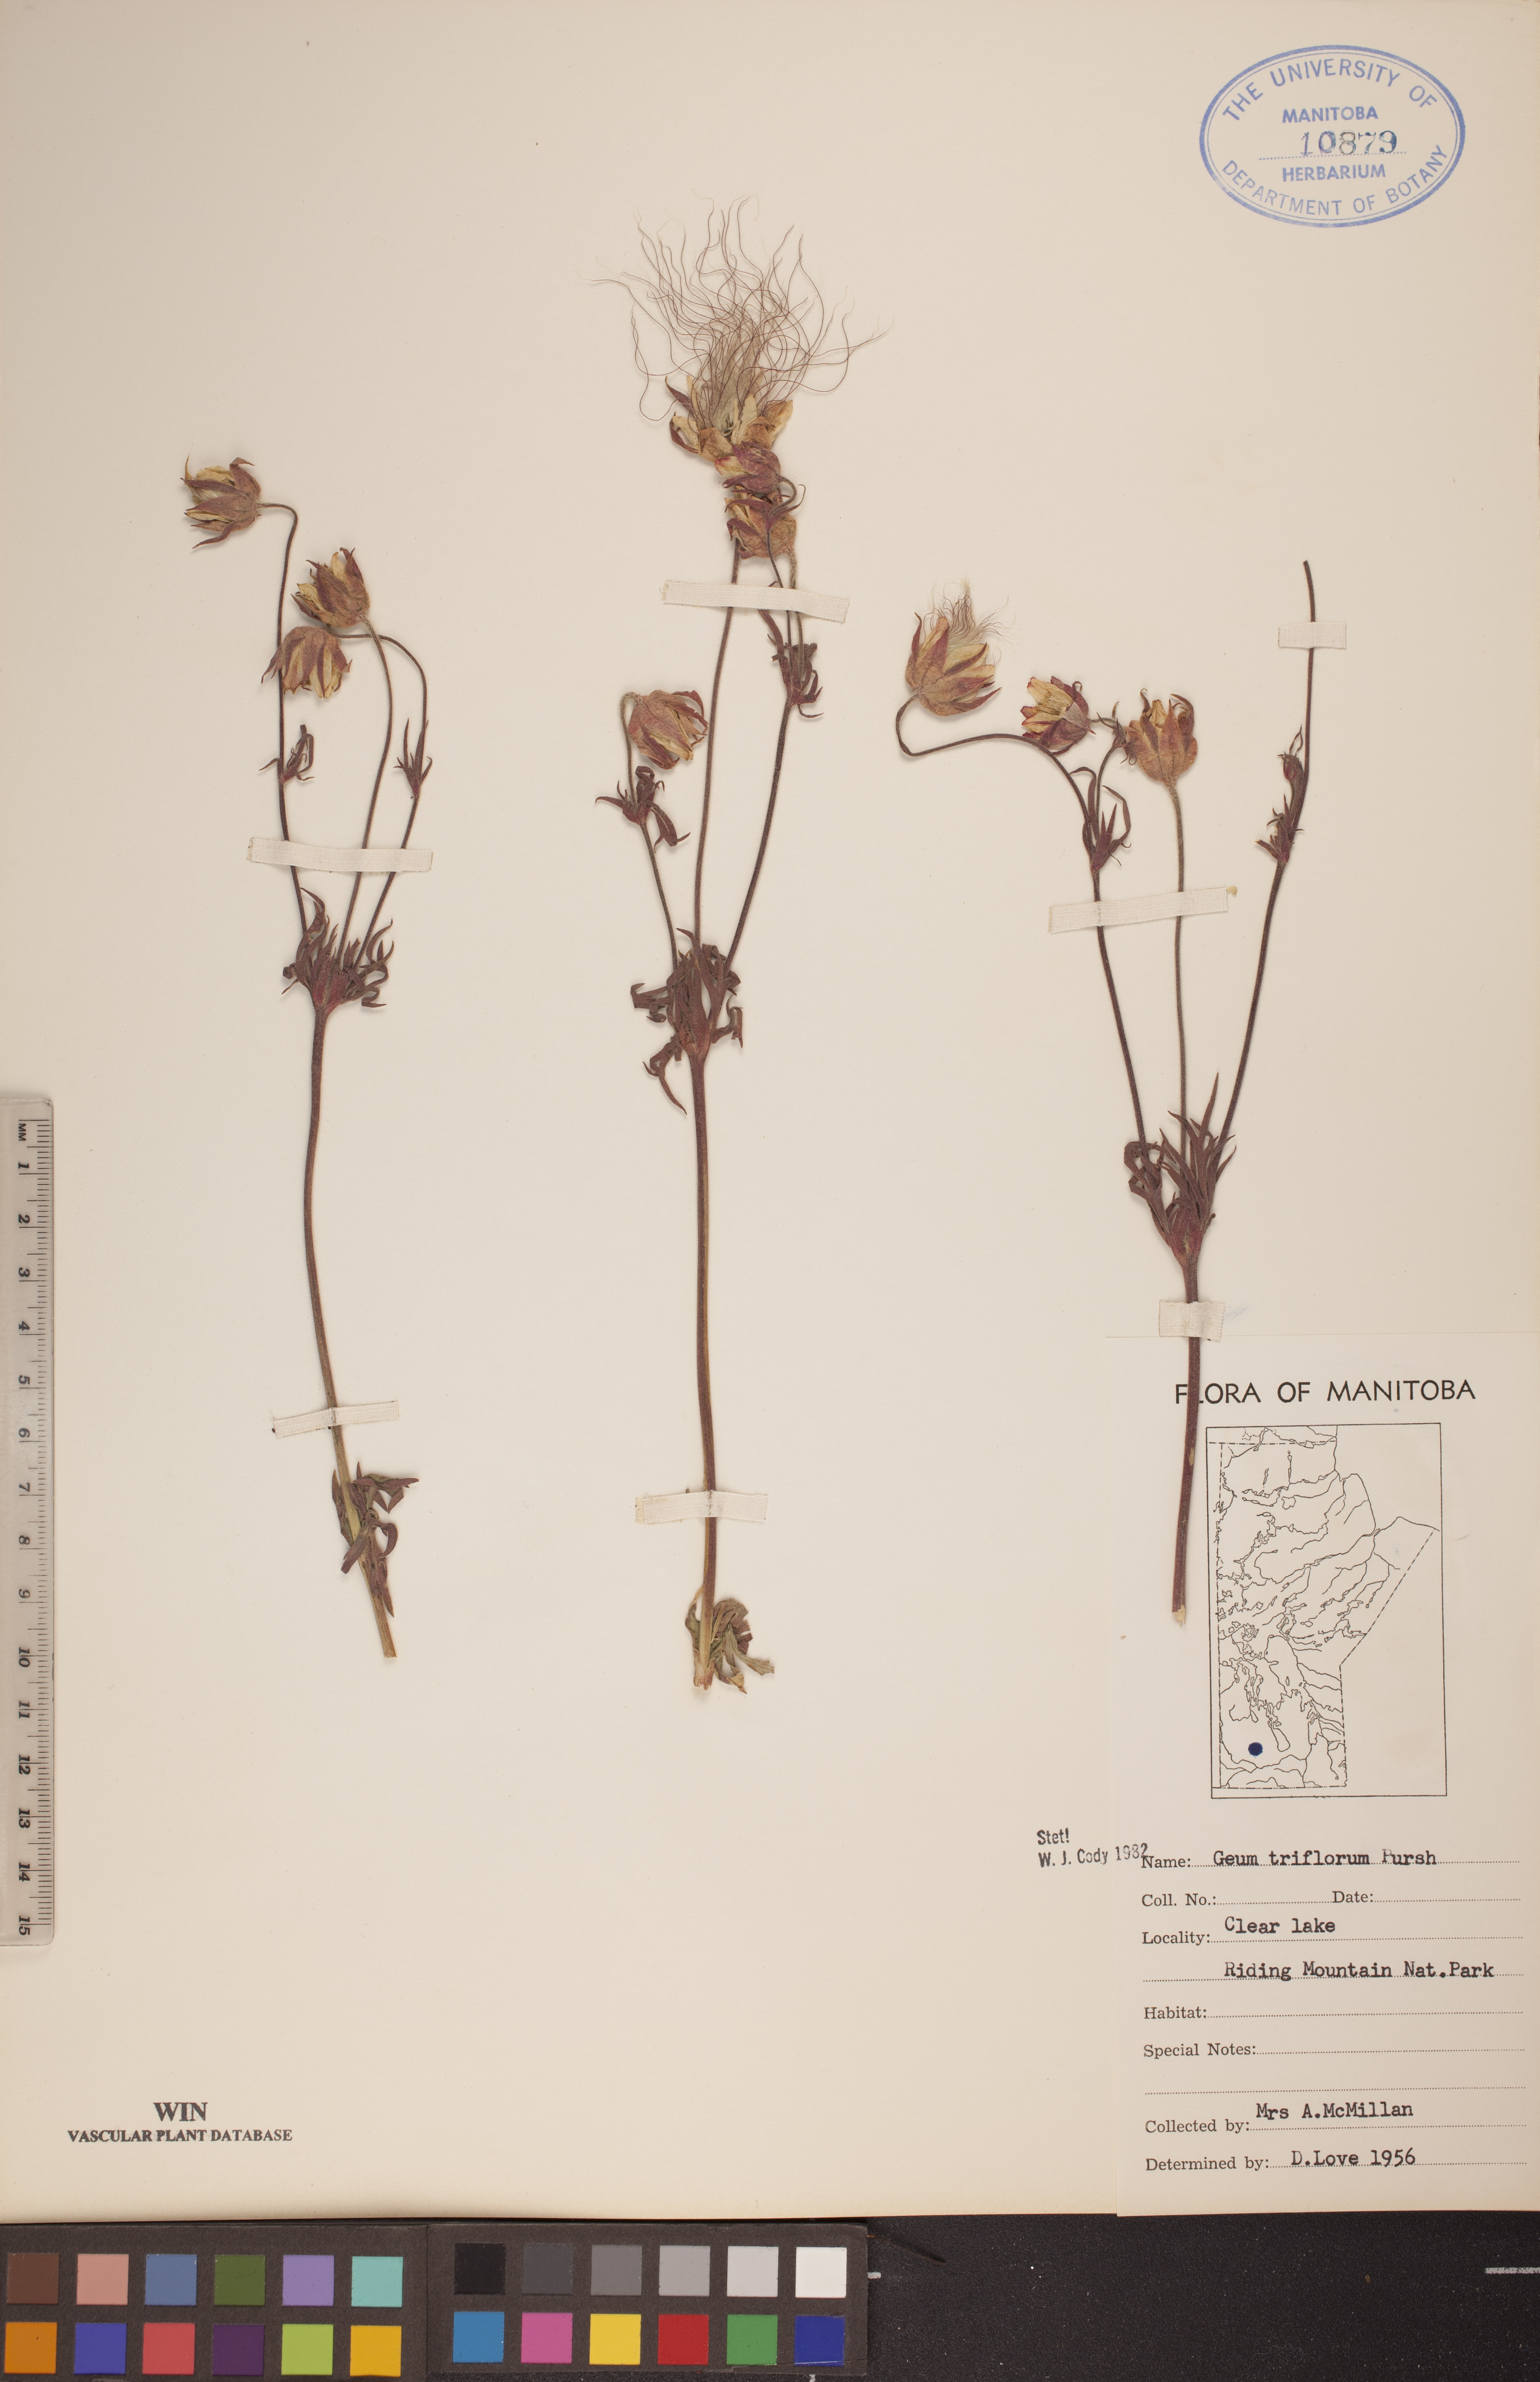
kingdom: Plantae
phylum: Tracheophyta
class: Magnoliopsida
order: Rosales
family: Rosaceae
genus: Geum
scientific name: Geum triflorum
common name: Old man's whiskers
